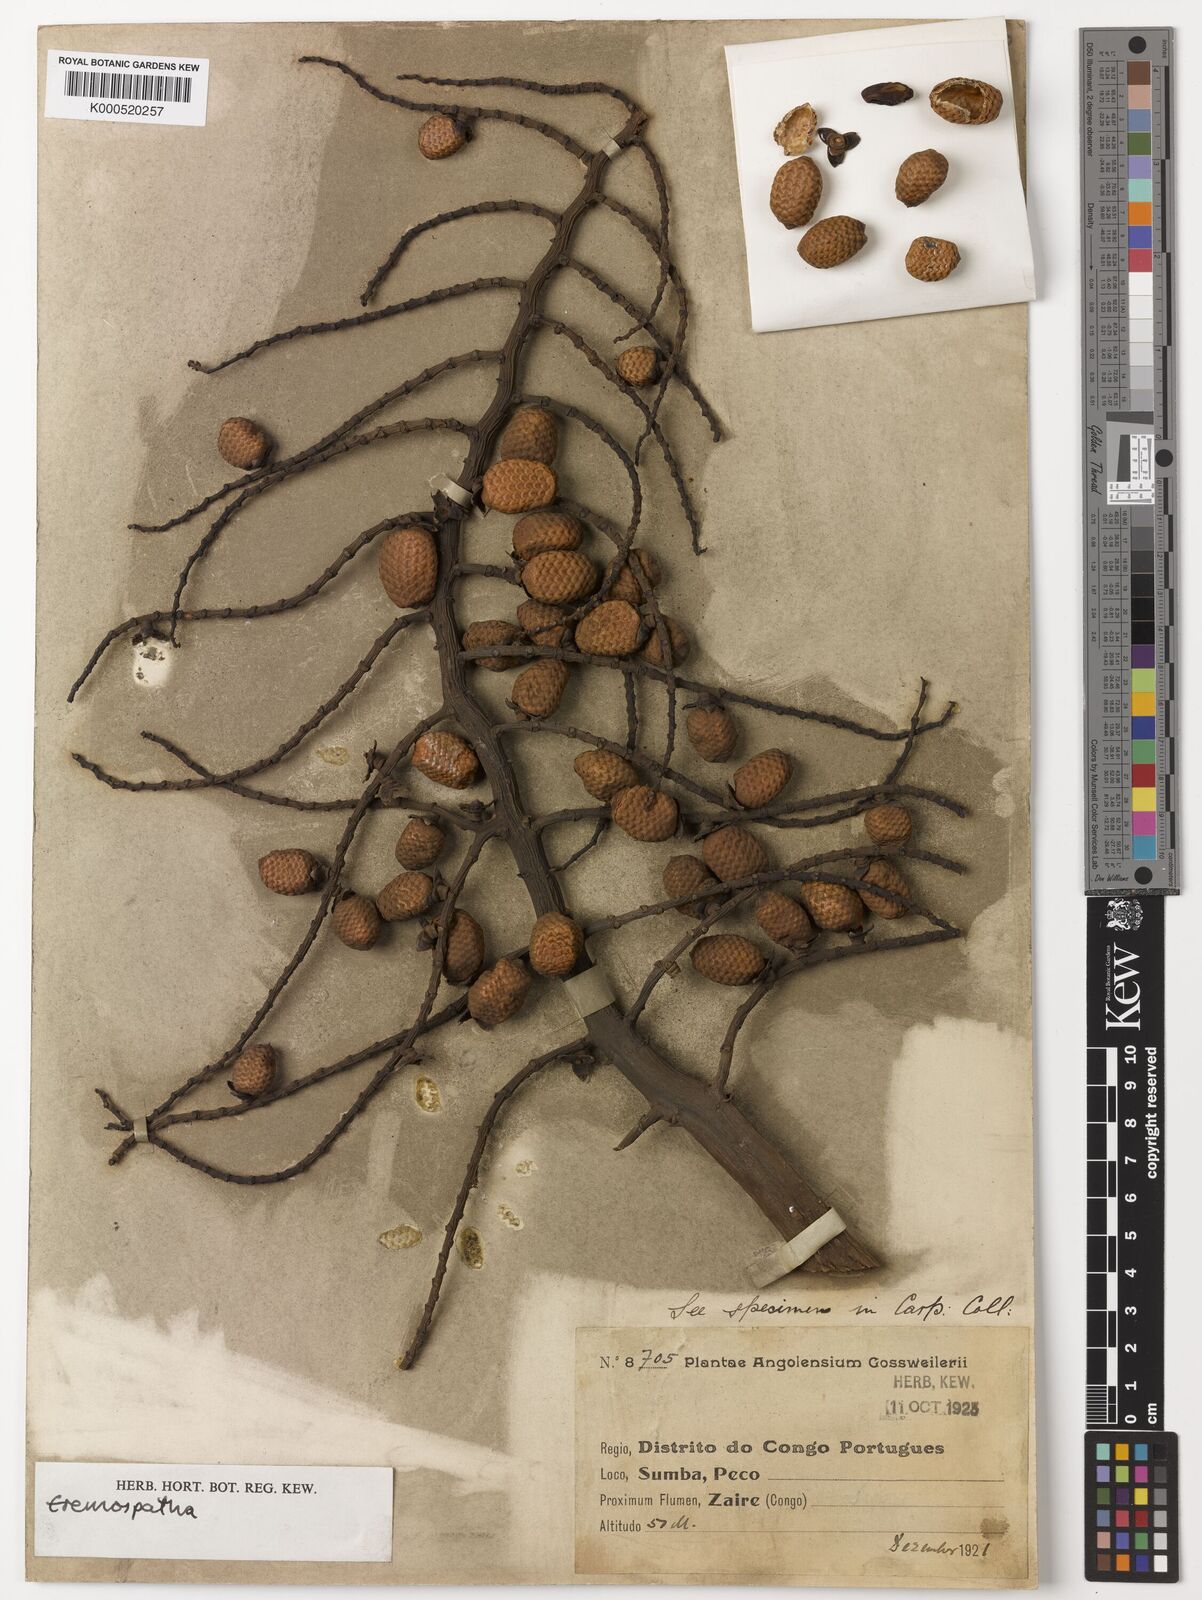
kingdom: Plantae
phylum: Tracheophyta
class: Liliopsida
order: Arecales
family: Arecaceae
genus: Eremospatha
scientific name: Eremospatha
